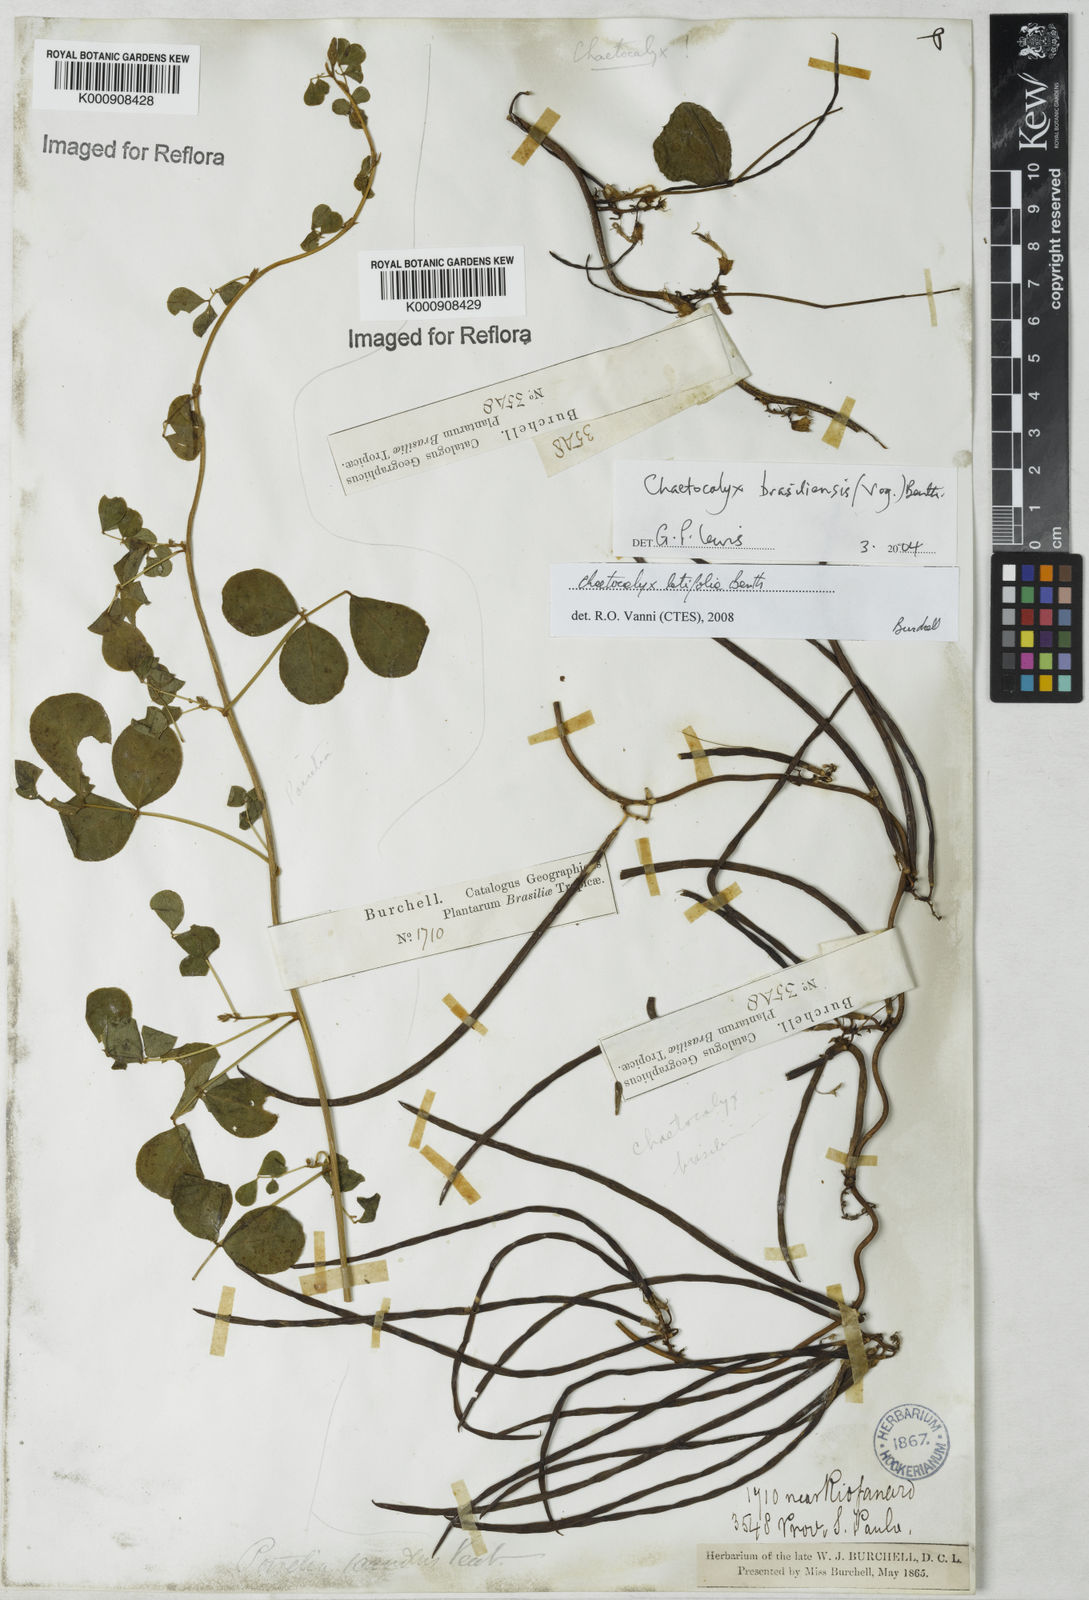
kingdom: Plantae
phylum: Tracheophyta
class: Magnoliopsida
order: Fabales
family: Fabaceae
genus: Nissolia
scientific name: Nissolia brasiliensis
